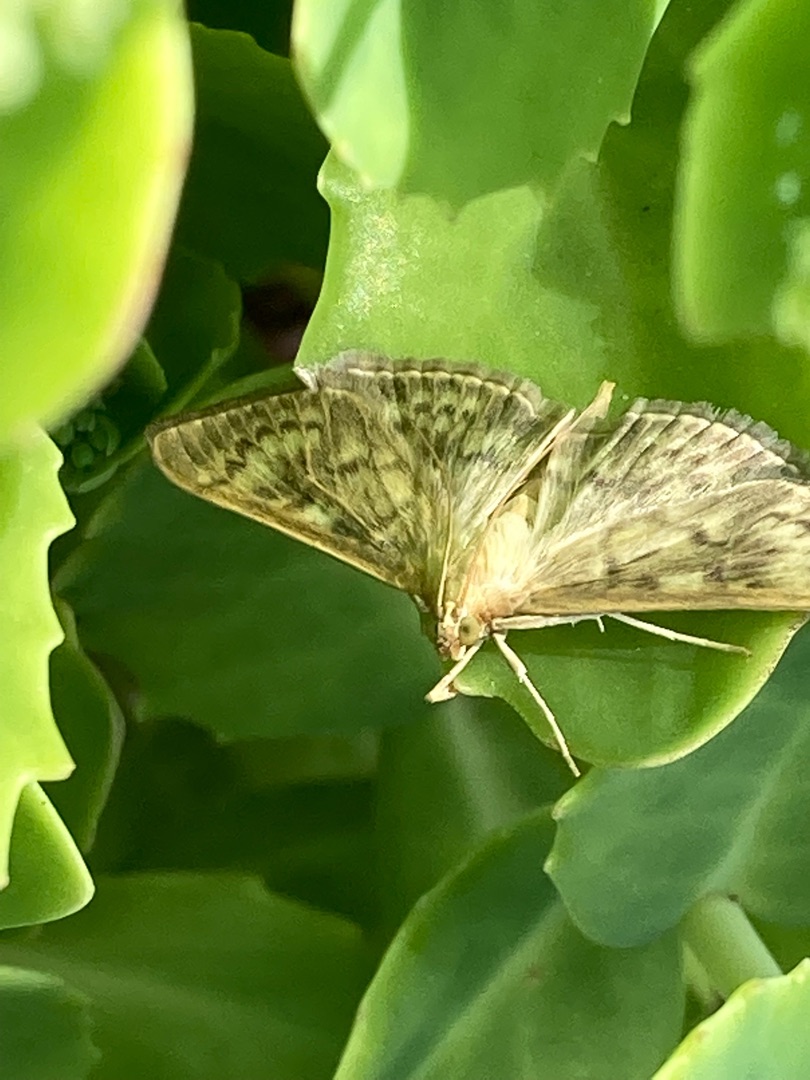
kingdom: Animalia
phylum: Arthropoda
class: Insecta
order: Lepidoptera
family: Crambidae
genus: Patania
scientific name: Patania ruralis
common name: Perlemorshalvmøl
